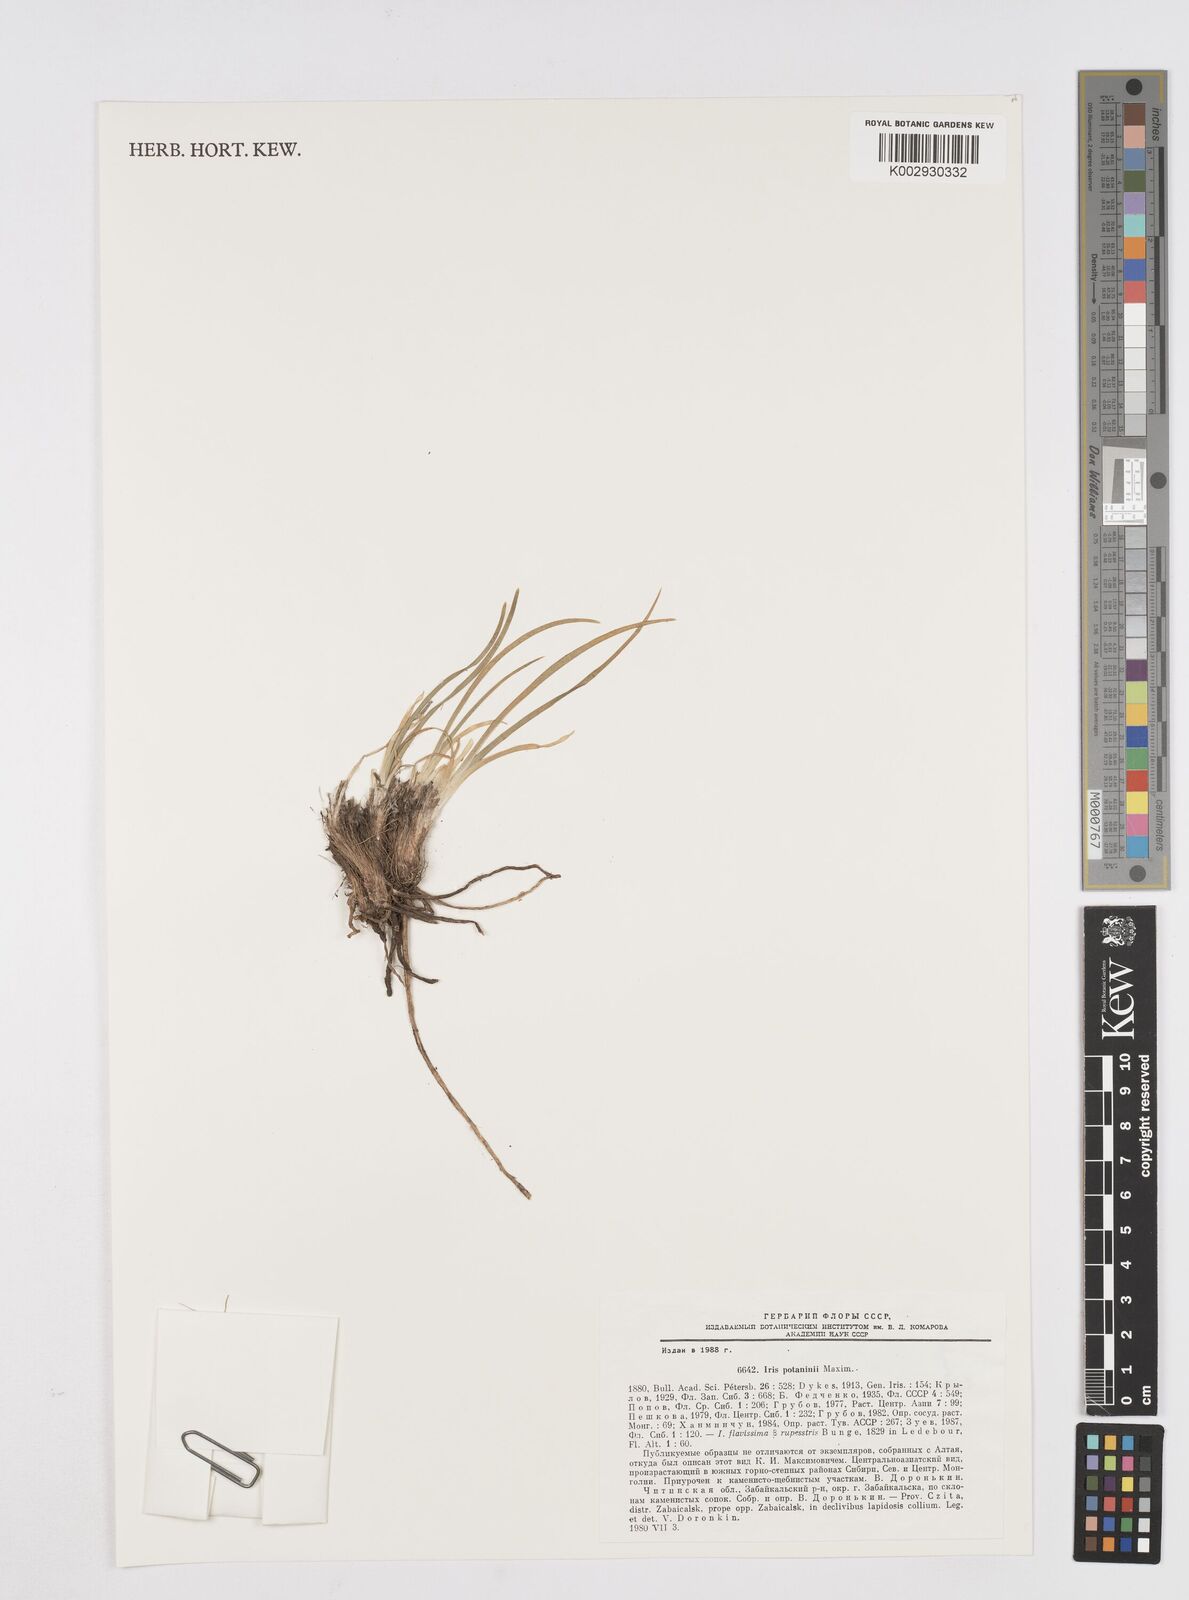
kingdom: Plantae
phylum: Tracheophyta
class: Liliopsida
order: Asparagales
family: Iridaceae
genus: Iris
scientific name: Iris potaninii
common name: Curl-sheath iris
